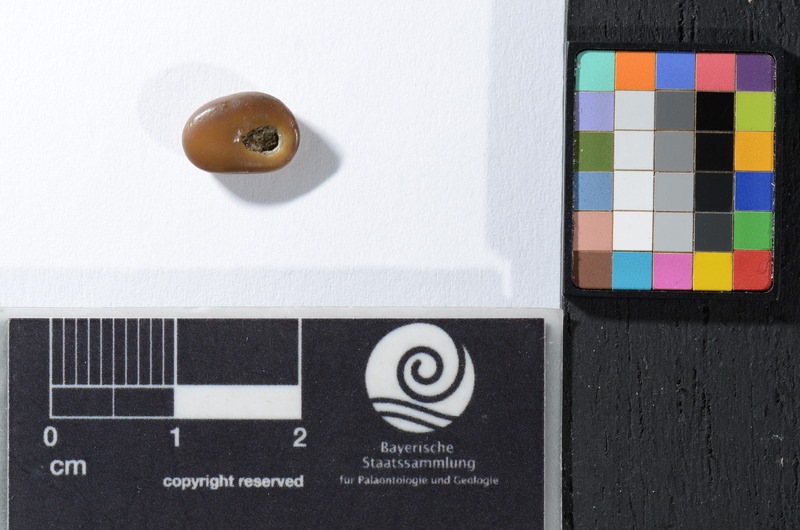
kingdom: Animalia
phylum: Chordata
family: Pycnodontidae
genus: Anomoeodus
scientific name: Anomoeodus
